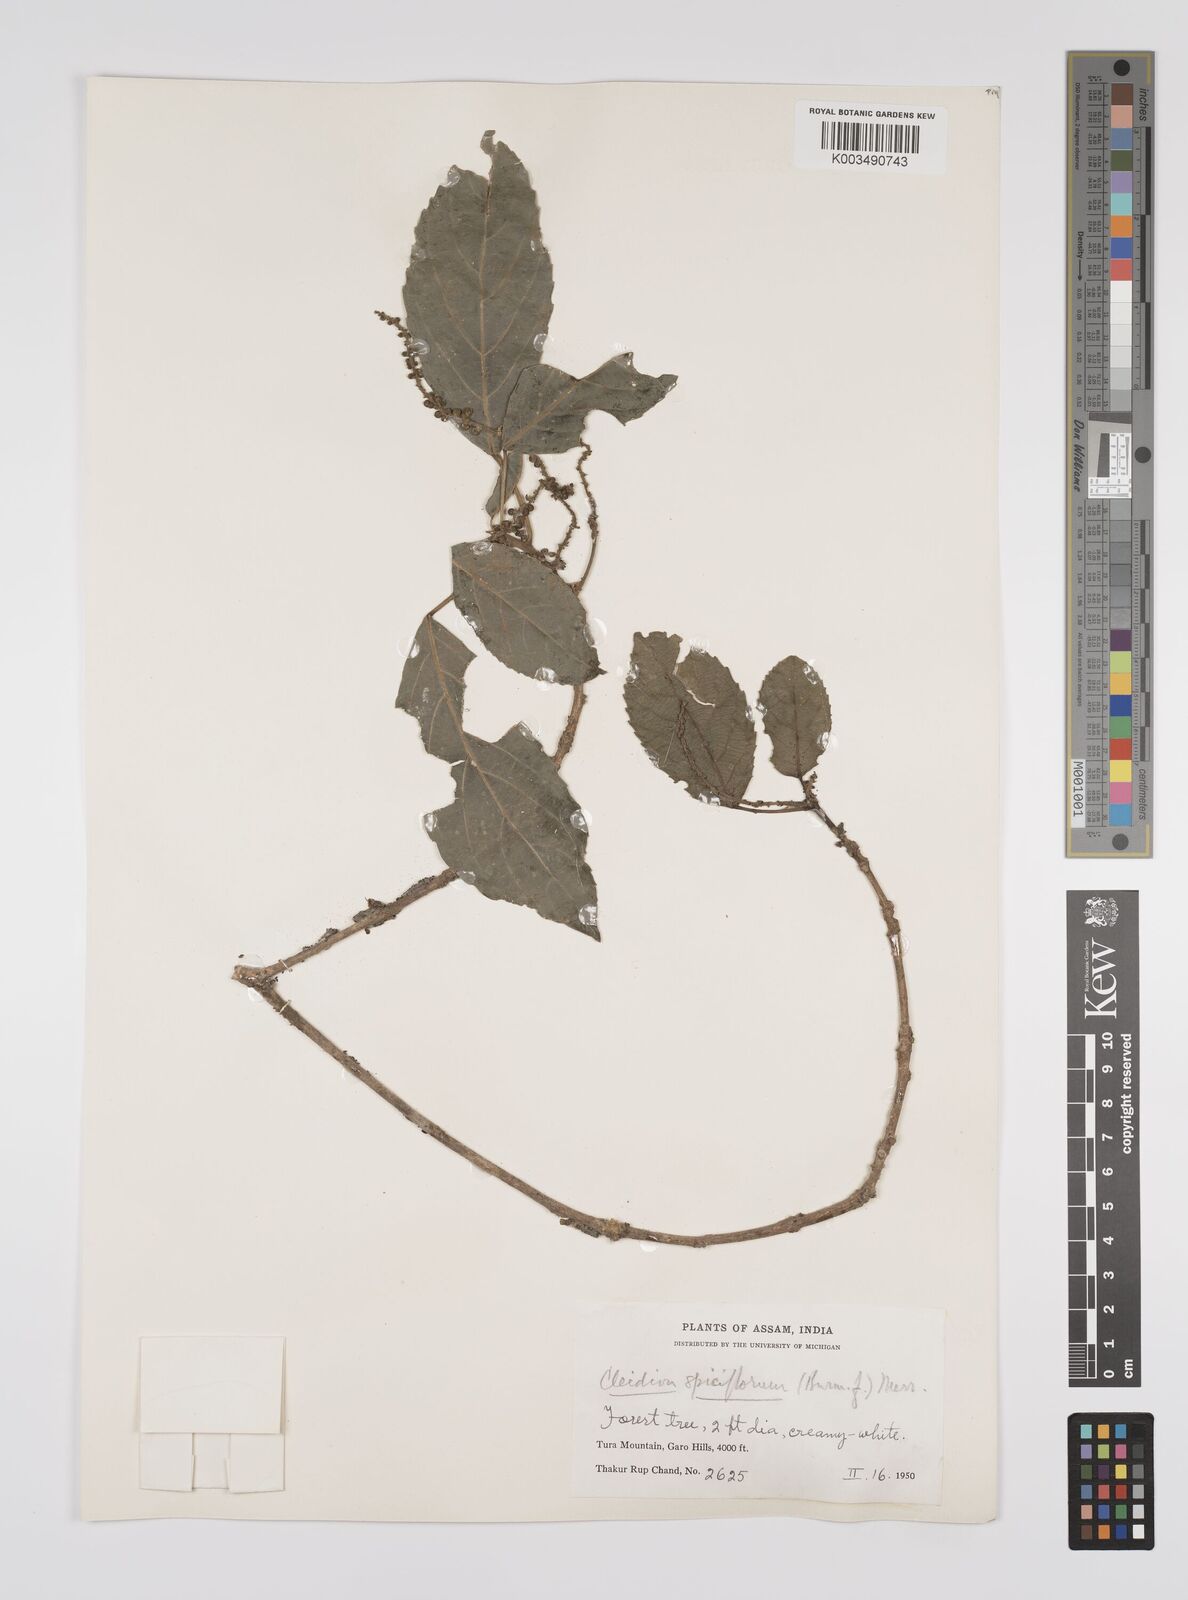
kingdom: Plantae
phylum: Tracheophyta
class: Magnoliopsida
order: Malpighiales
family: Euphorbiaceae
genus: Acalypha
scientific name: Acalypha spiciflora
